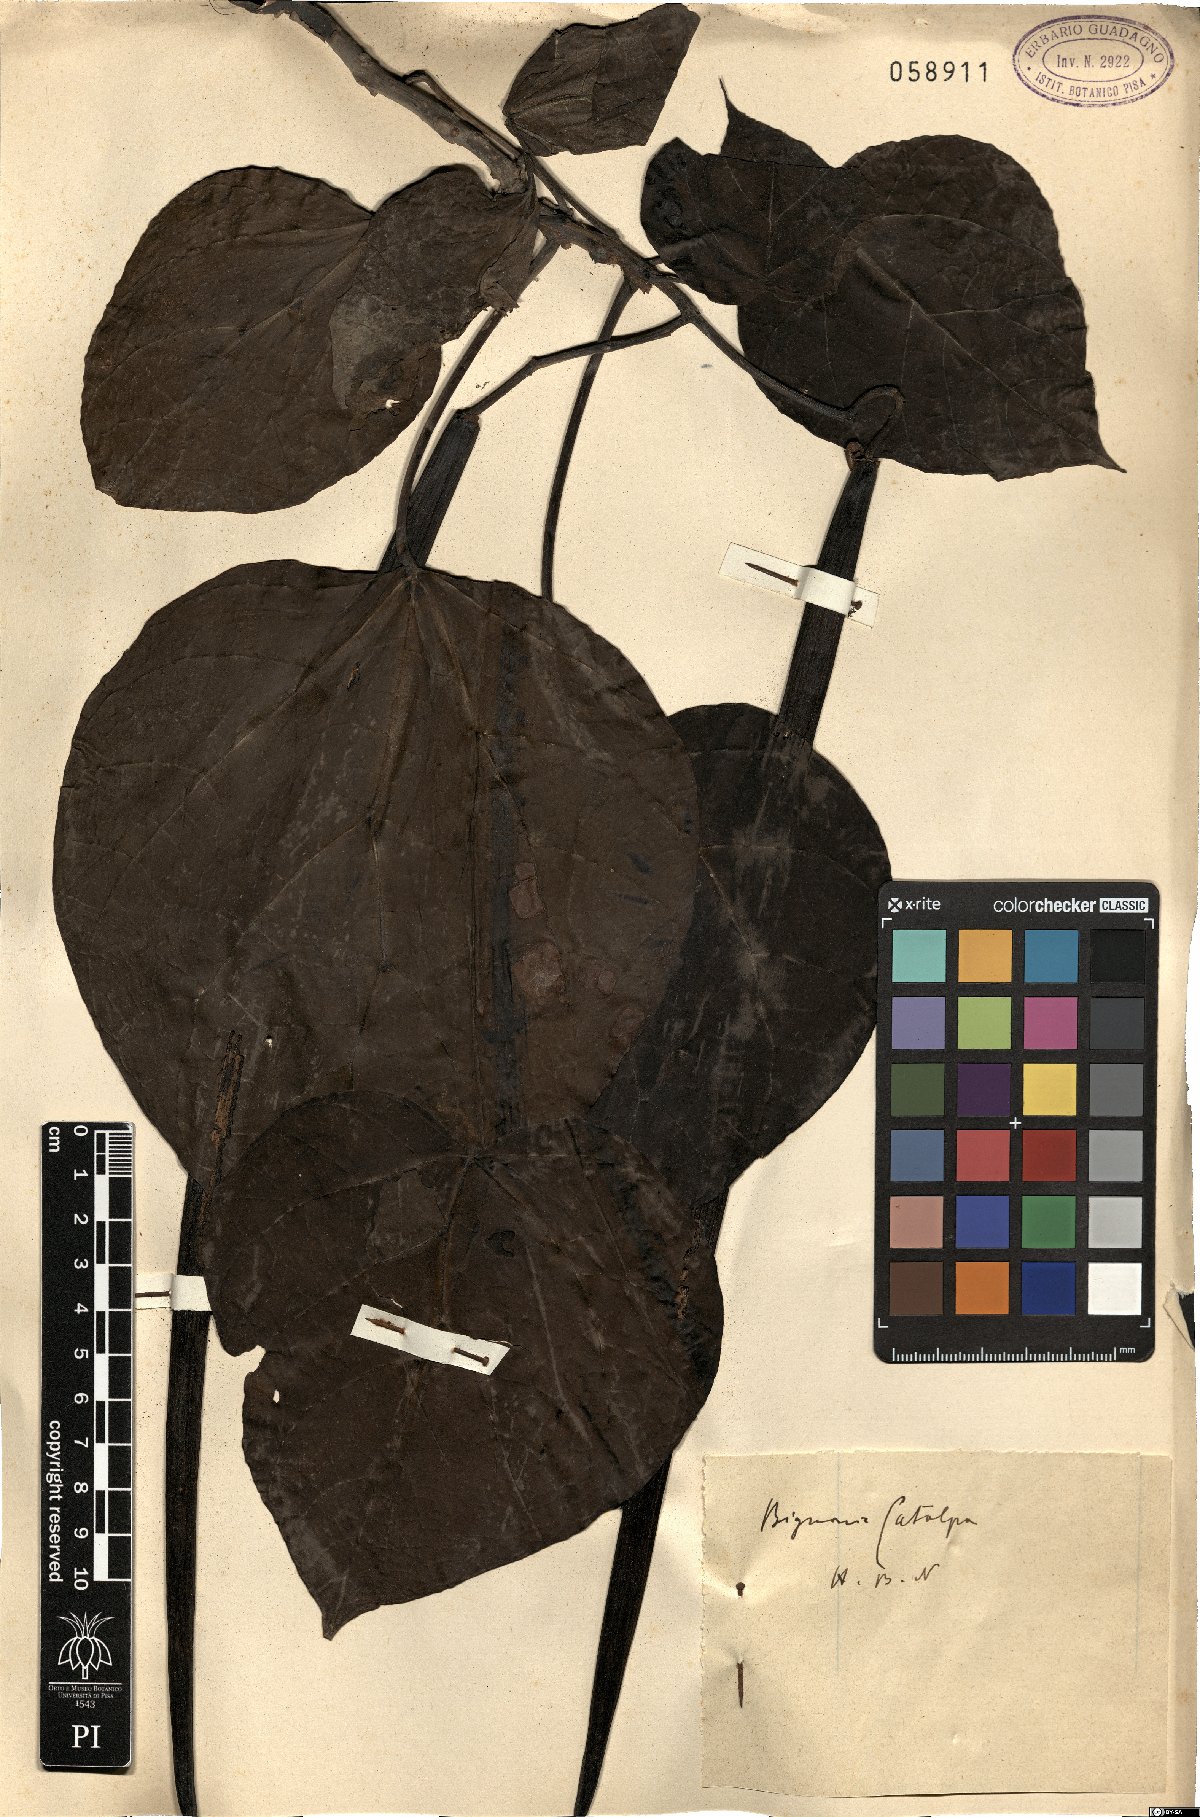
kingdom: Plantae
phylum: Tracheophyta
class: Magnoliopsida
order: Lamiales
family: Bignoniaceae
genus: Catalpa
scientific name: Catalpa bignonioides
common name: Southern catalpa
